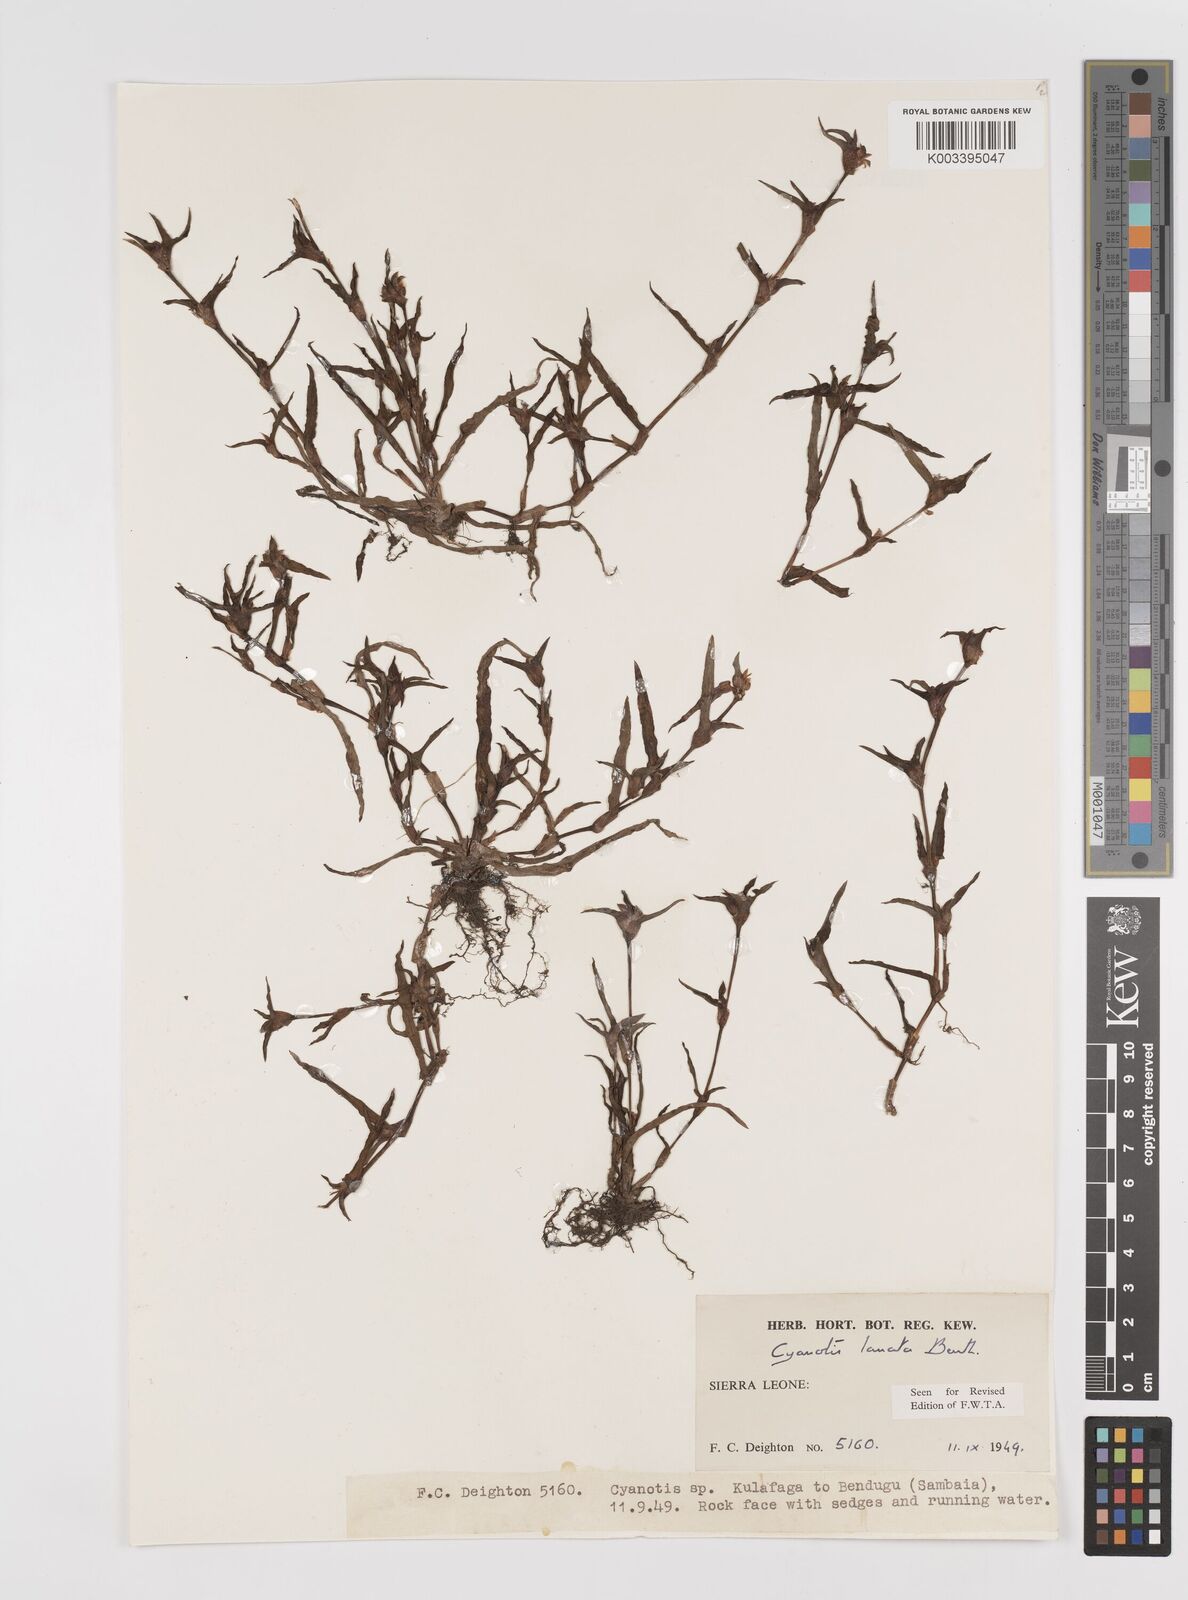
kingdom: Plantae
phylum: Tracheophyta
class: Liliopsida
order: Commelinales
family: Commelinaceae
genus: Cyanotis
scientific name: Cyanotis lanata
